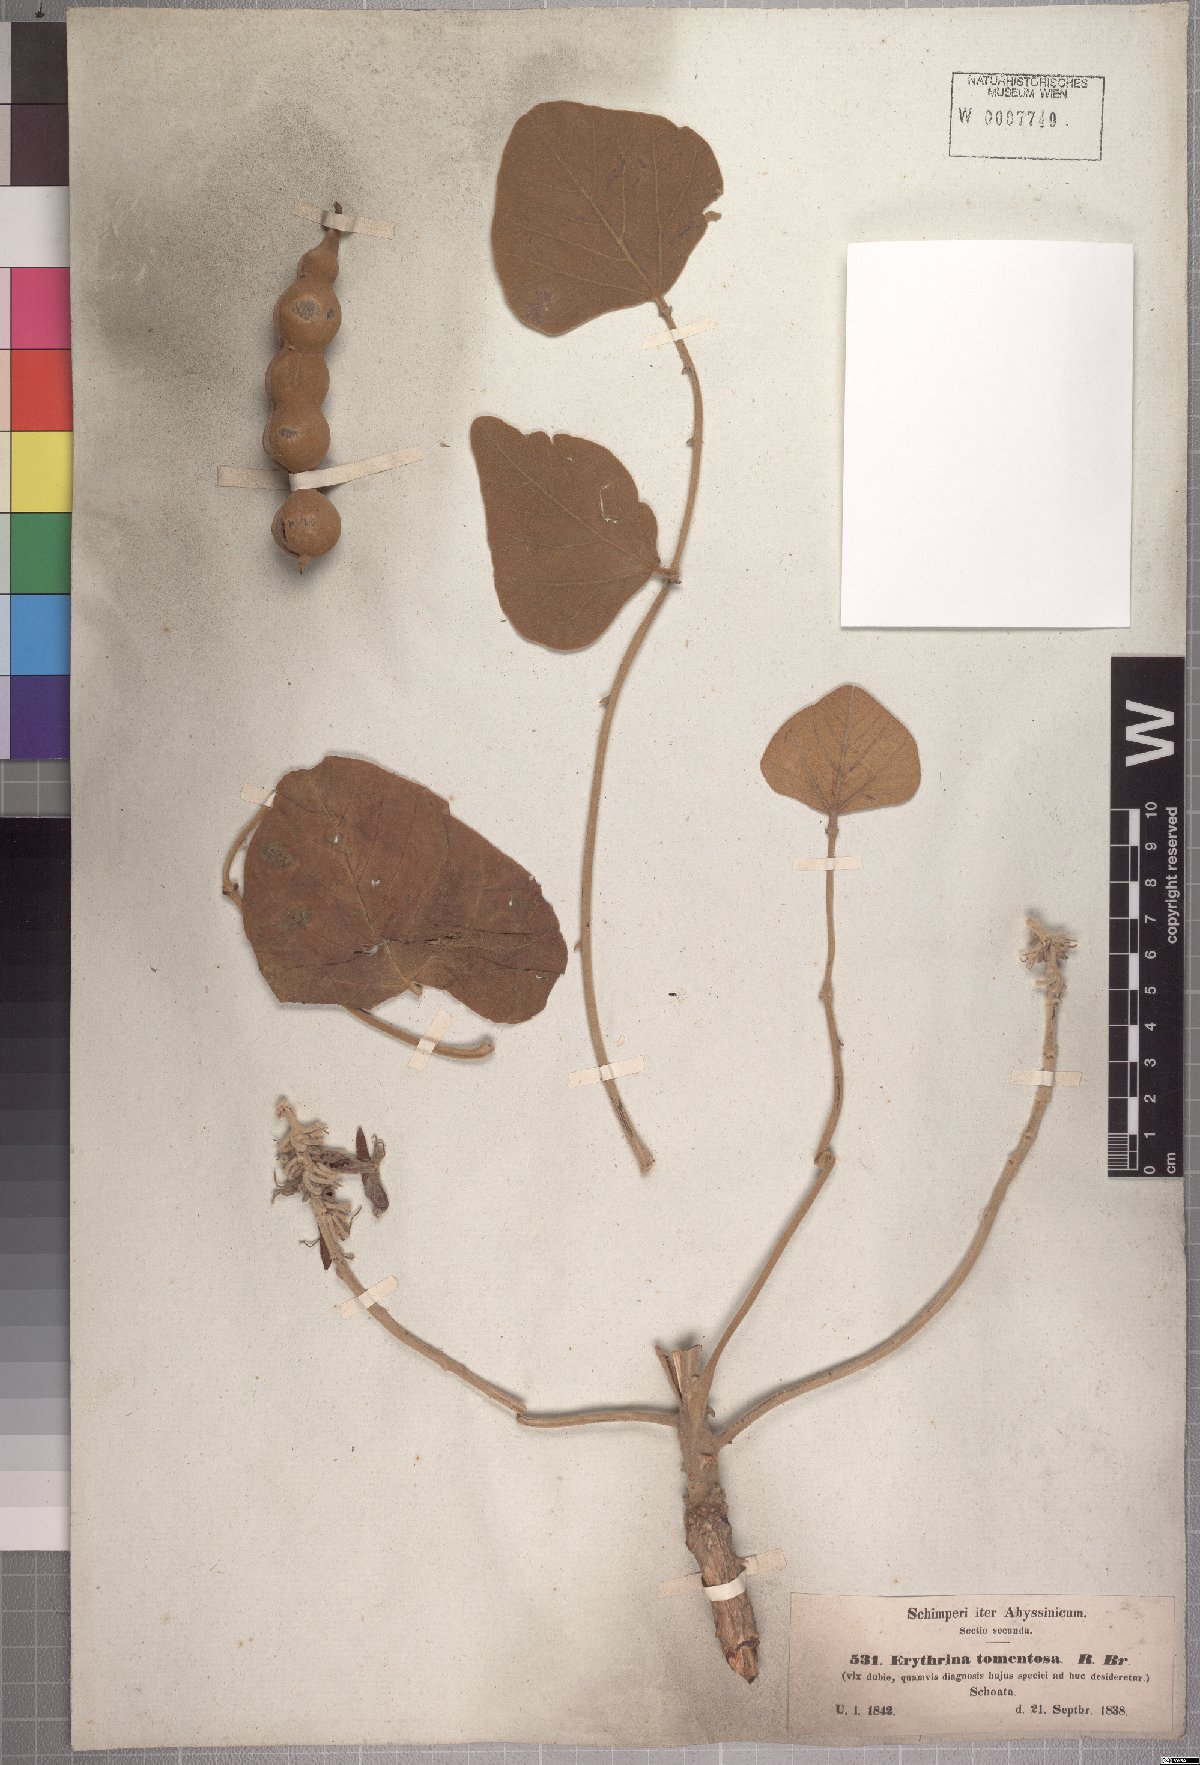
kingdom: Plantae
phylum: Tracheophyta
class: Magnoliopsida
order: Fabales
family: Fabaceae
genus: Erythrina
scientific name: Erythrina abyssinica
